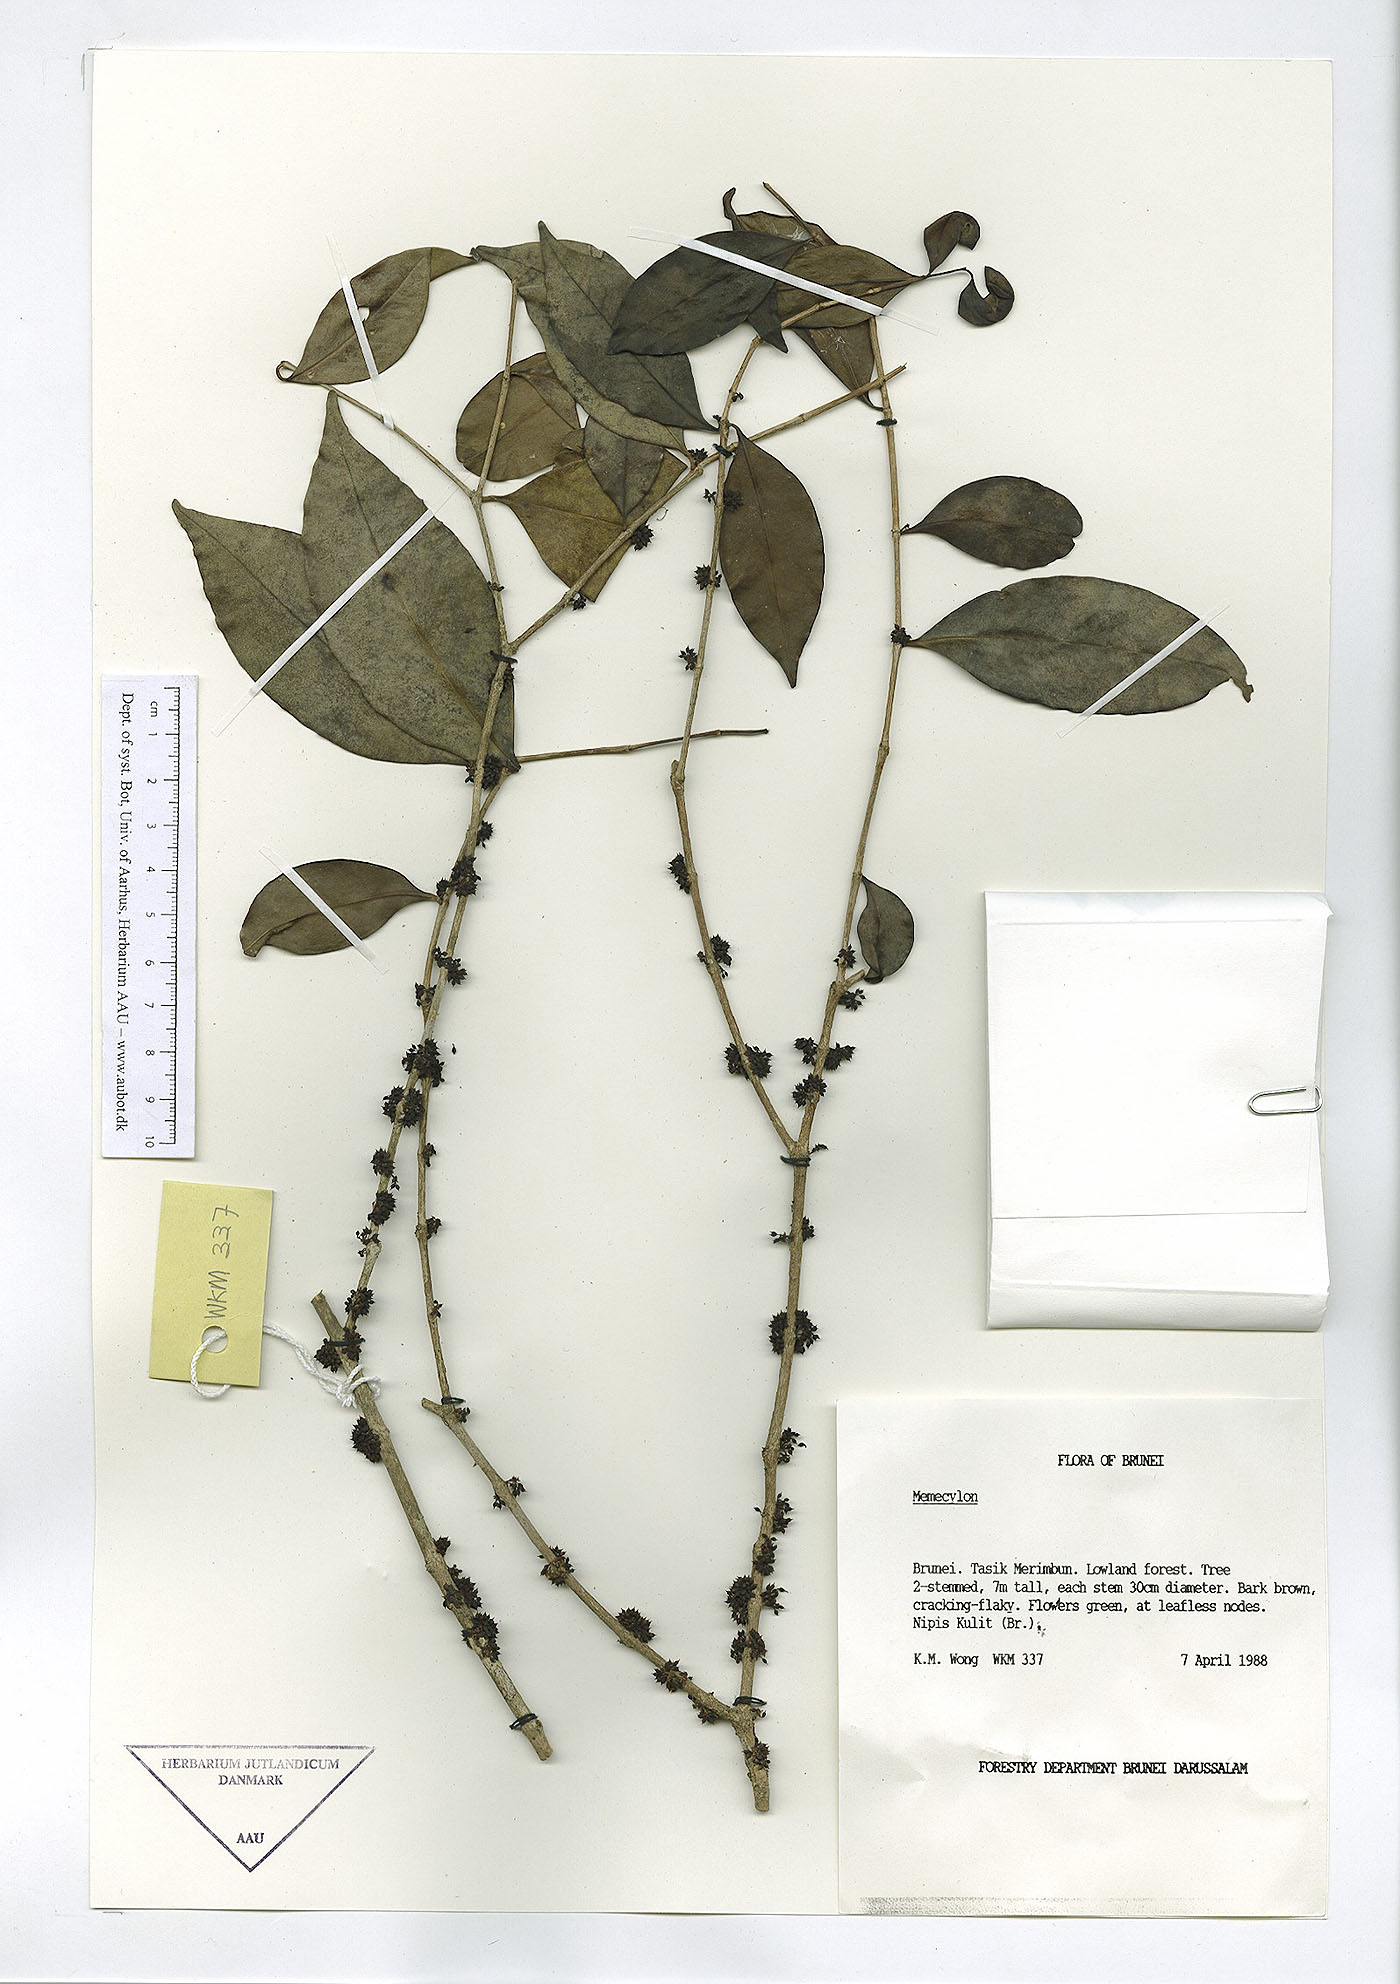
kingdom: Plantae
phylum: Tracheophyta
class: Magnoliopsida
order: Myrtales
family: Melastomataceae
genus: Memecylon
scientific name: Memecylon
